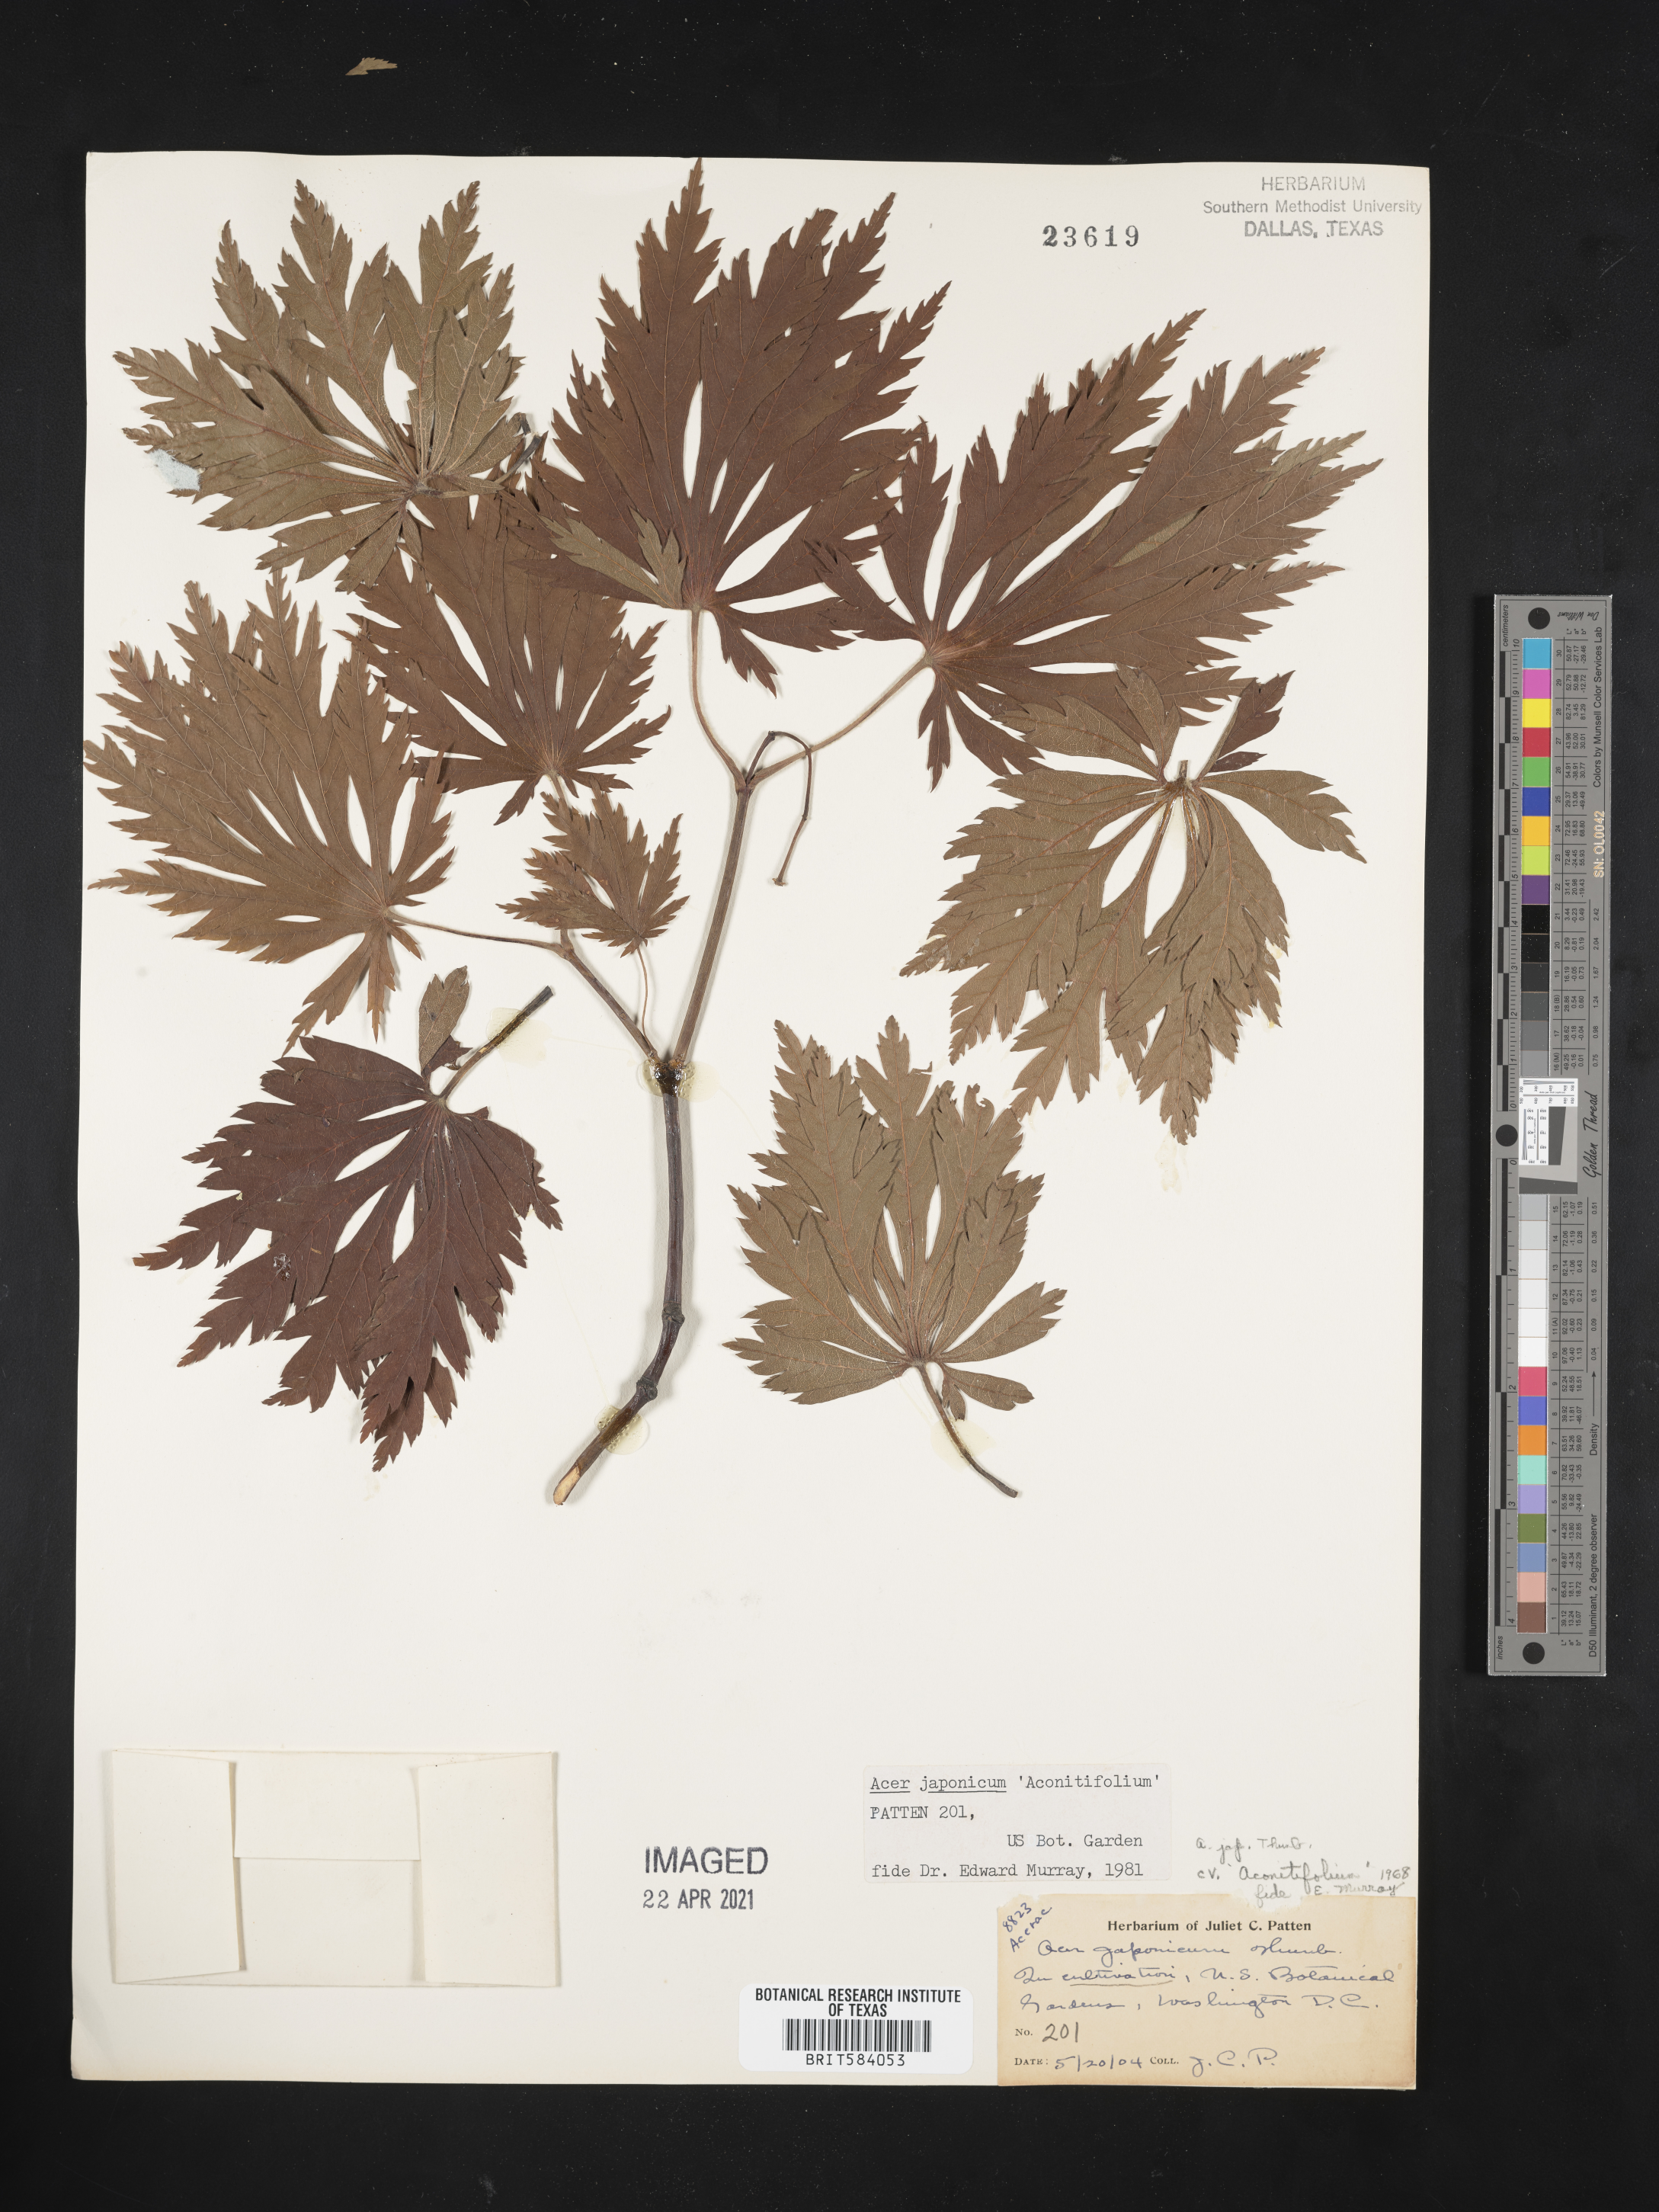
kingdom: Plantae
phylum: Tracheophyta
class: Magnoliopsida
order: Sapindales
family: Sapindaceae
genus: Acer
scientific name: Acer japonicum
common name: Amur maple
